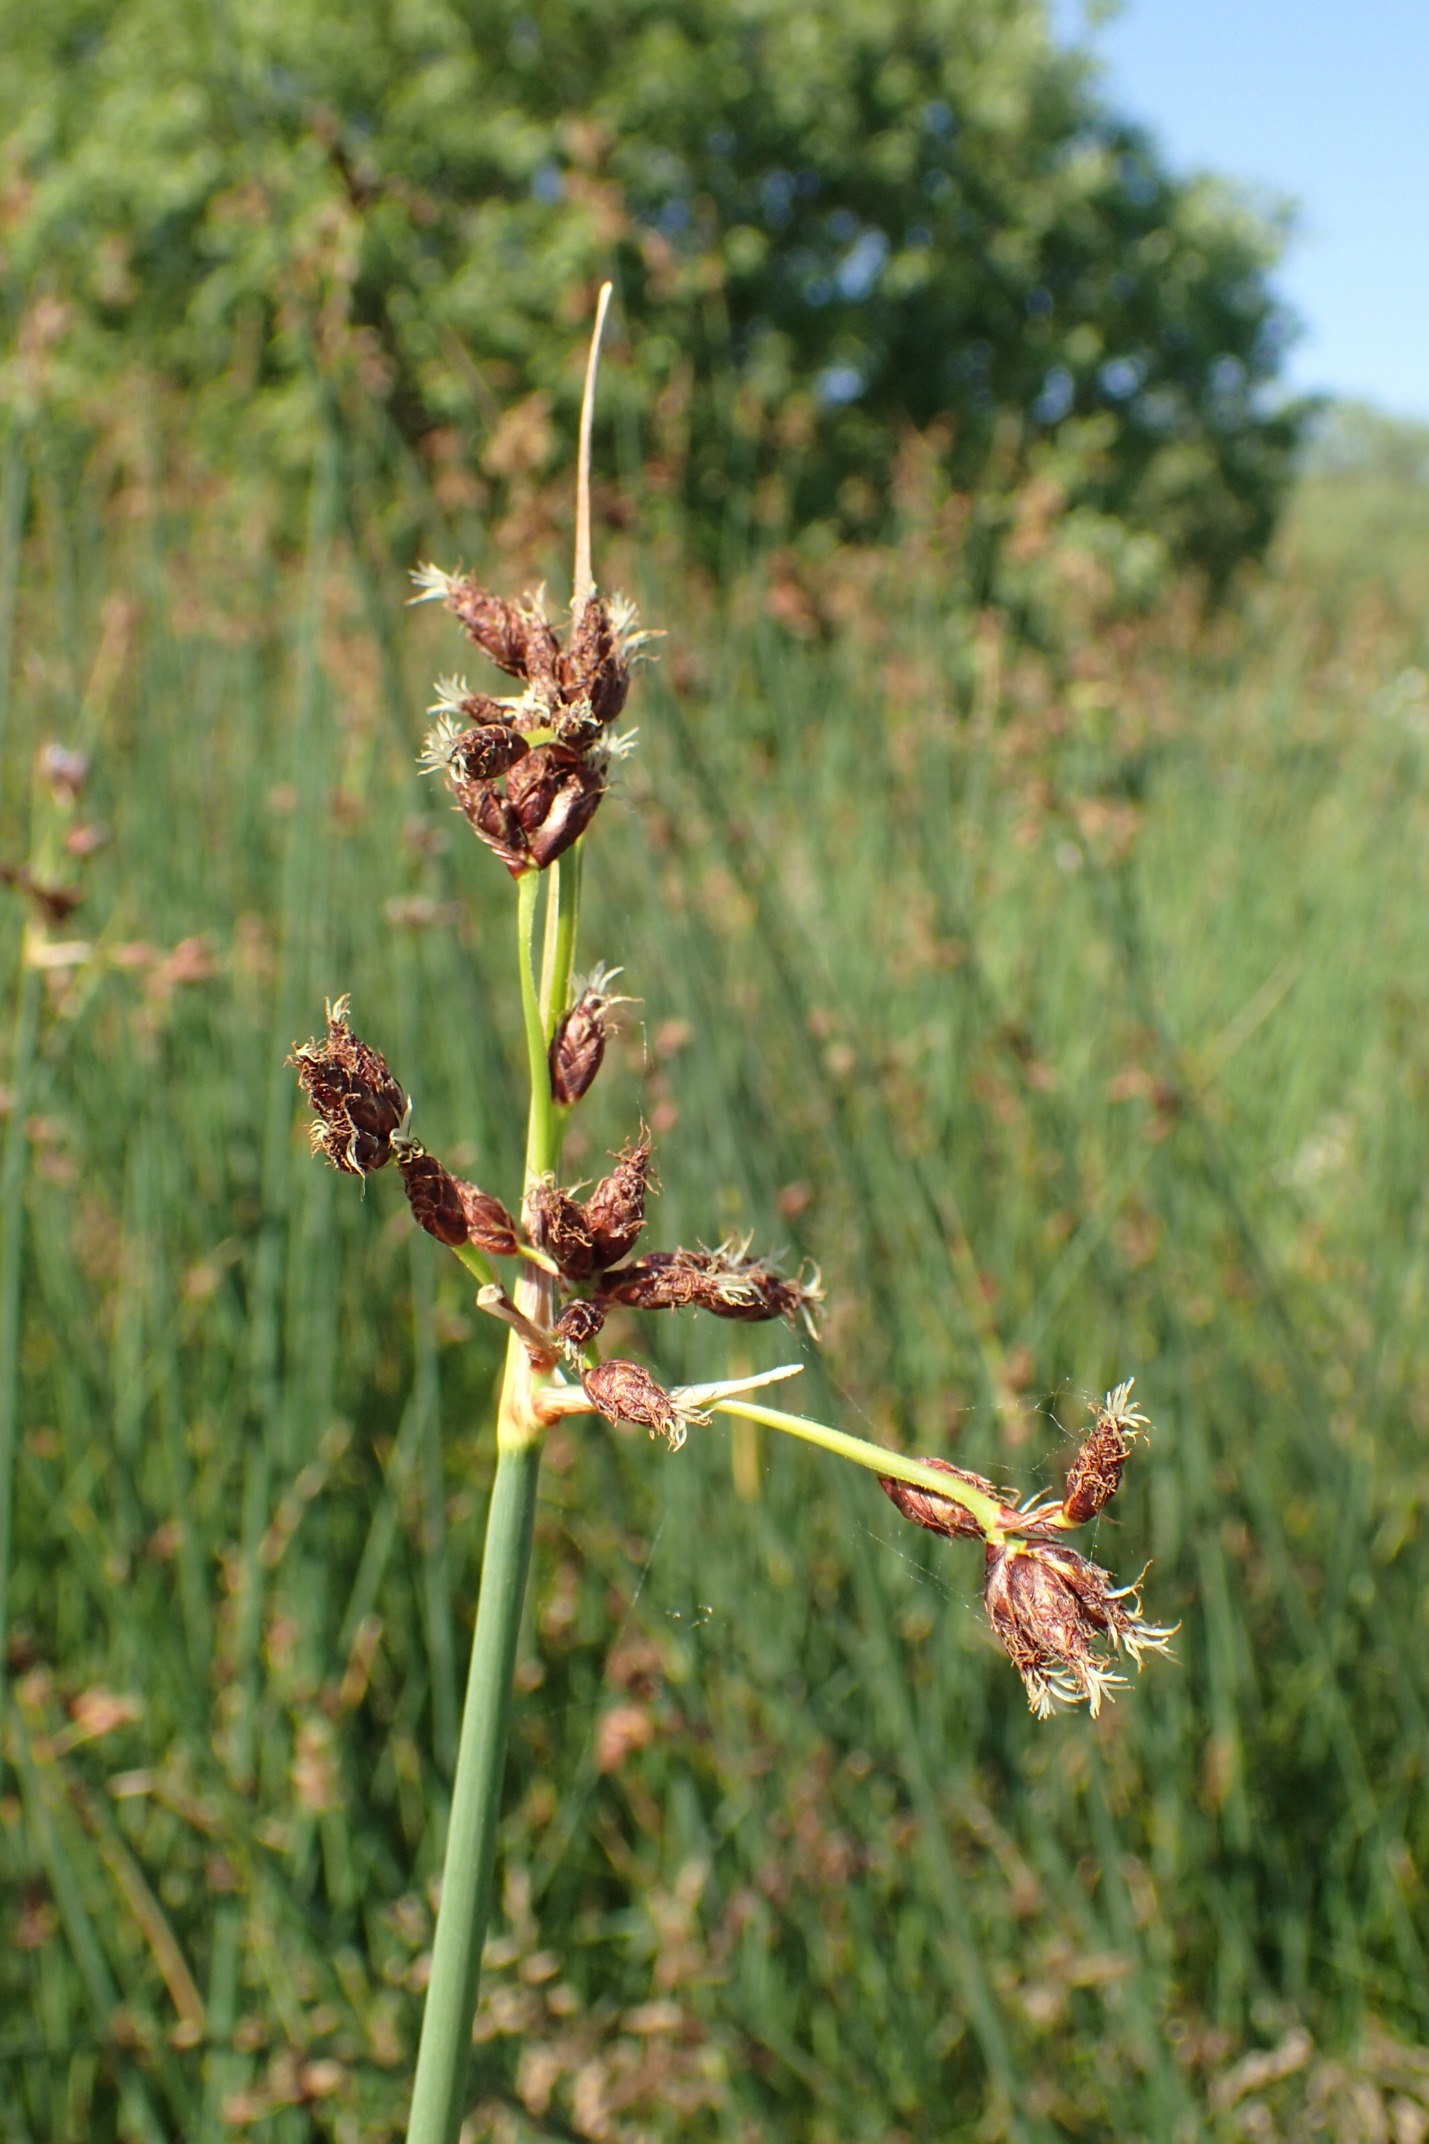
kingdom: Plantae
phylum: Tracheophyta
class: Liliopsida
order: Poales
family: Cyperaceae
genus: Schoenoplectus
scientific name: Schoenoplectus lacustris
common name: Sø-kogleaks
